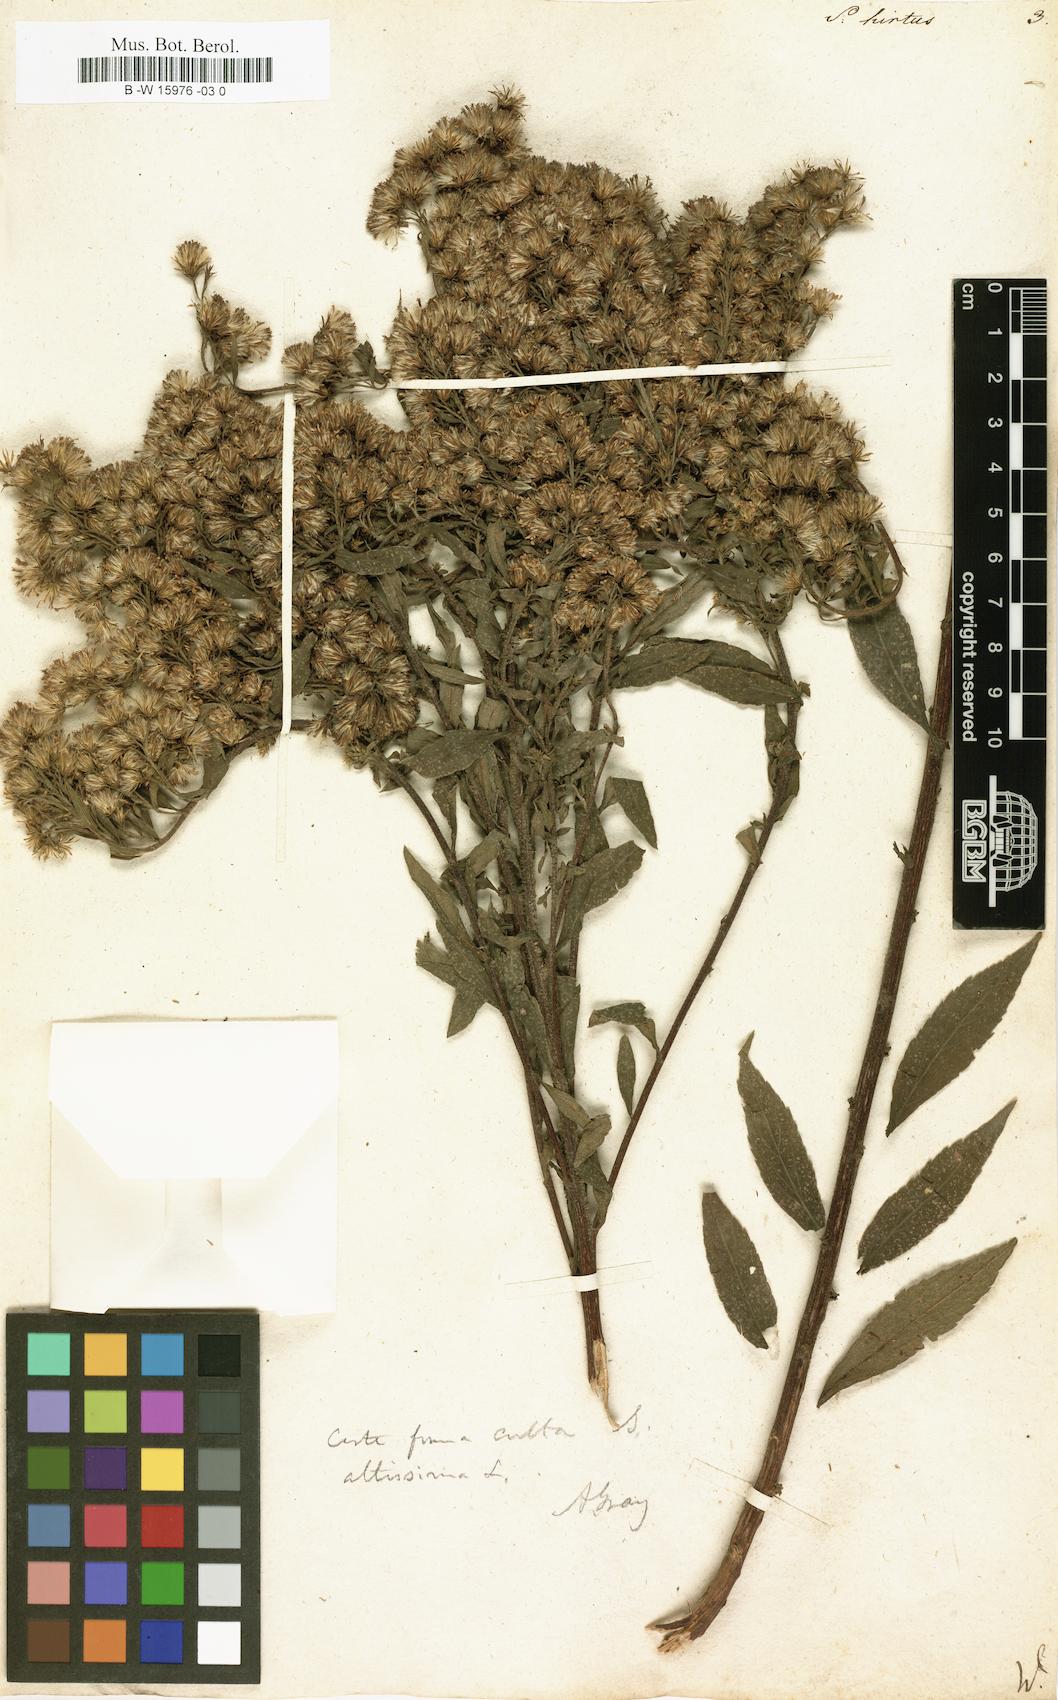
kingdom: Plantae
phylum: Tracheophyta
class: Magnoliopsida
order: Asterales
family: Asteraceae
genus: Solidago
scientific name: Solidago rugosa
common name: Rough-stemmed goldenrod
